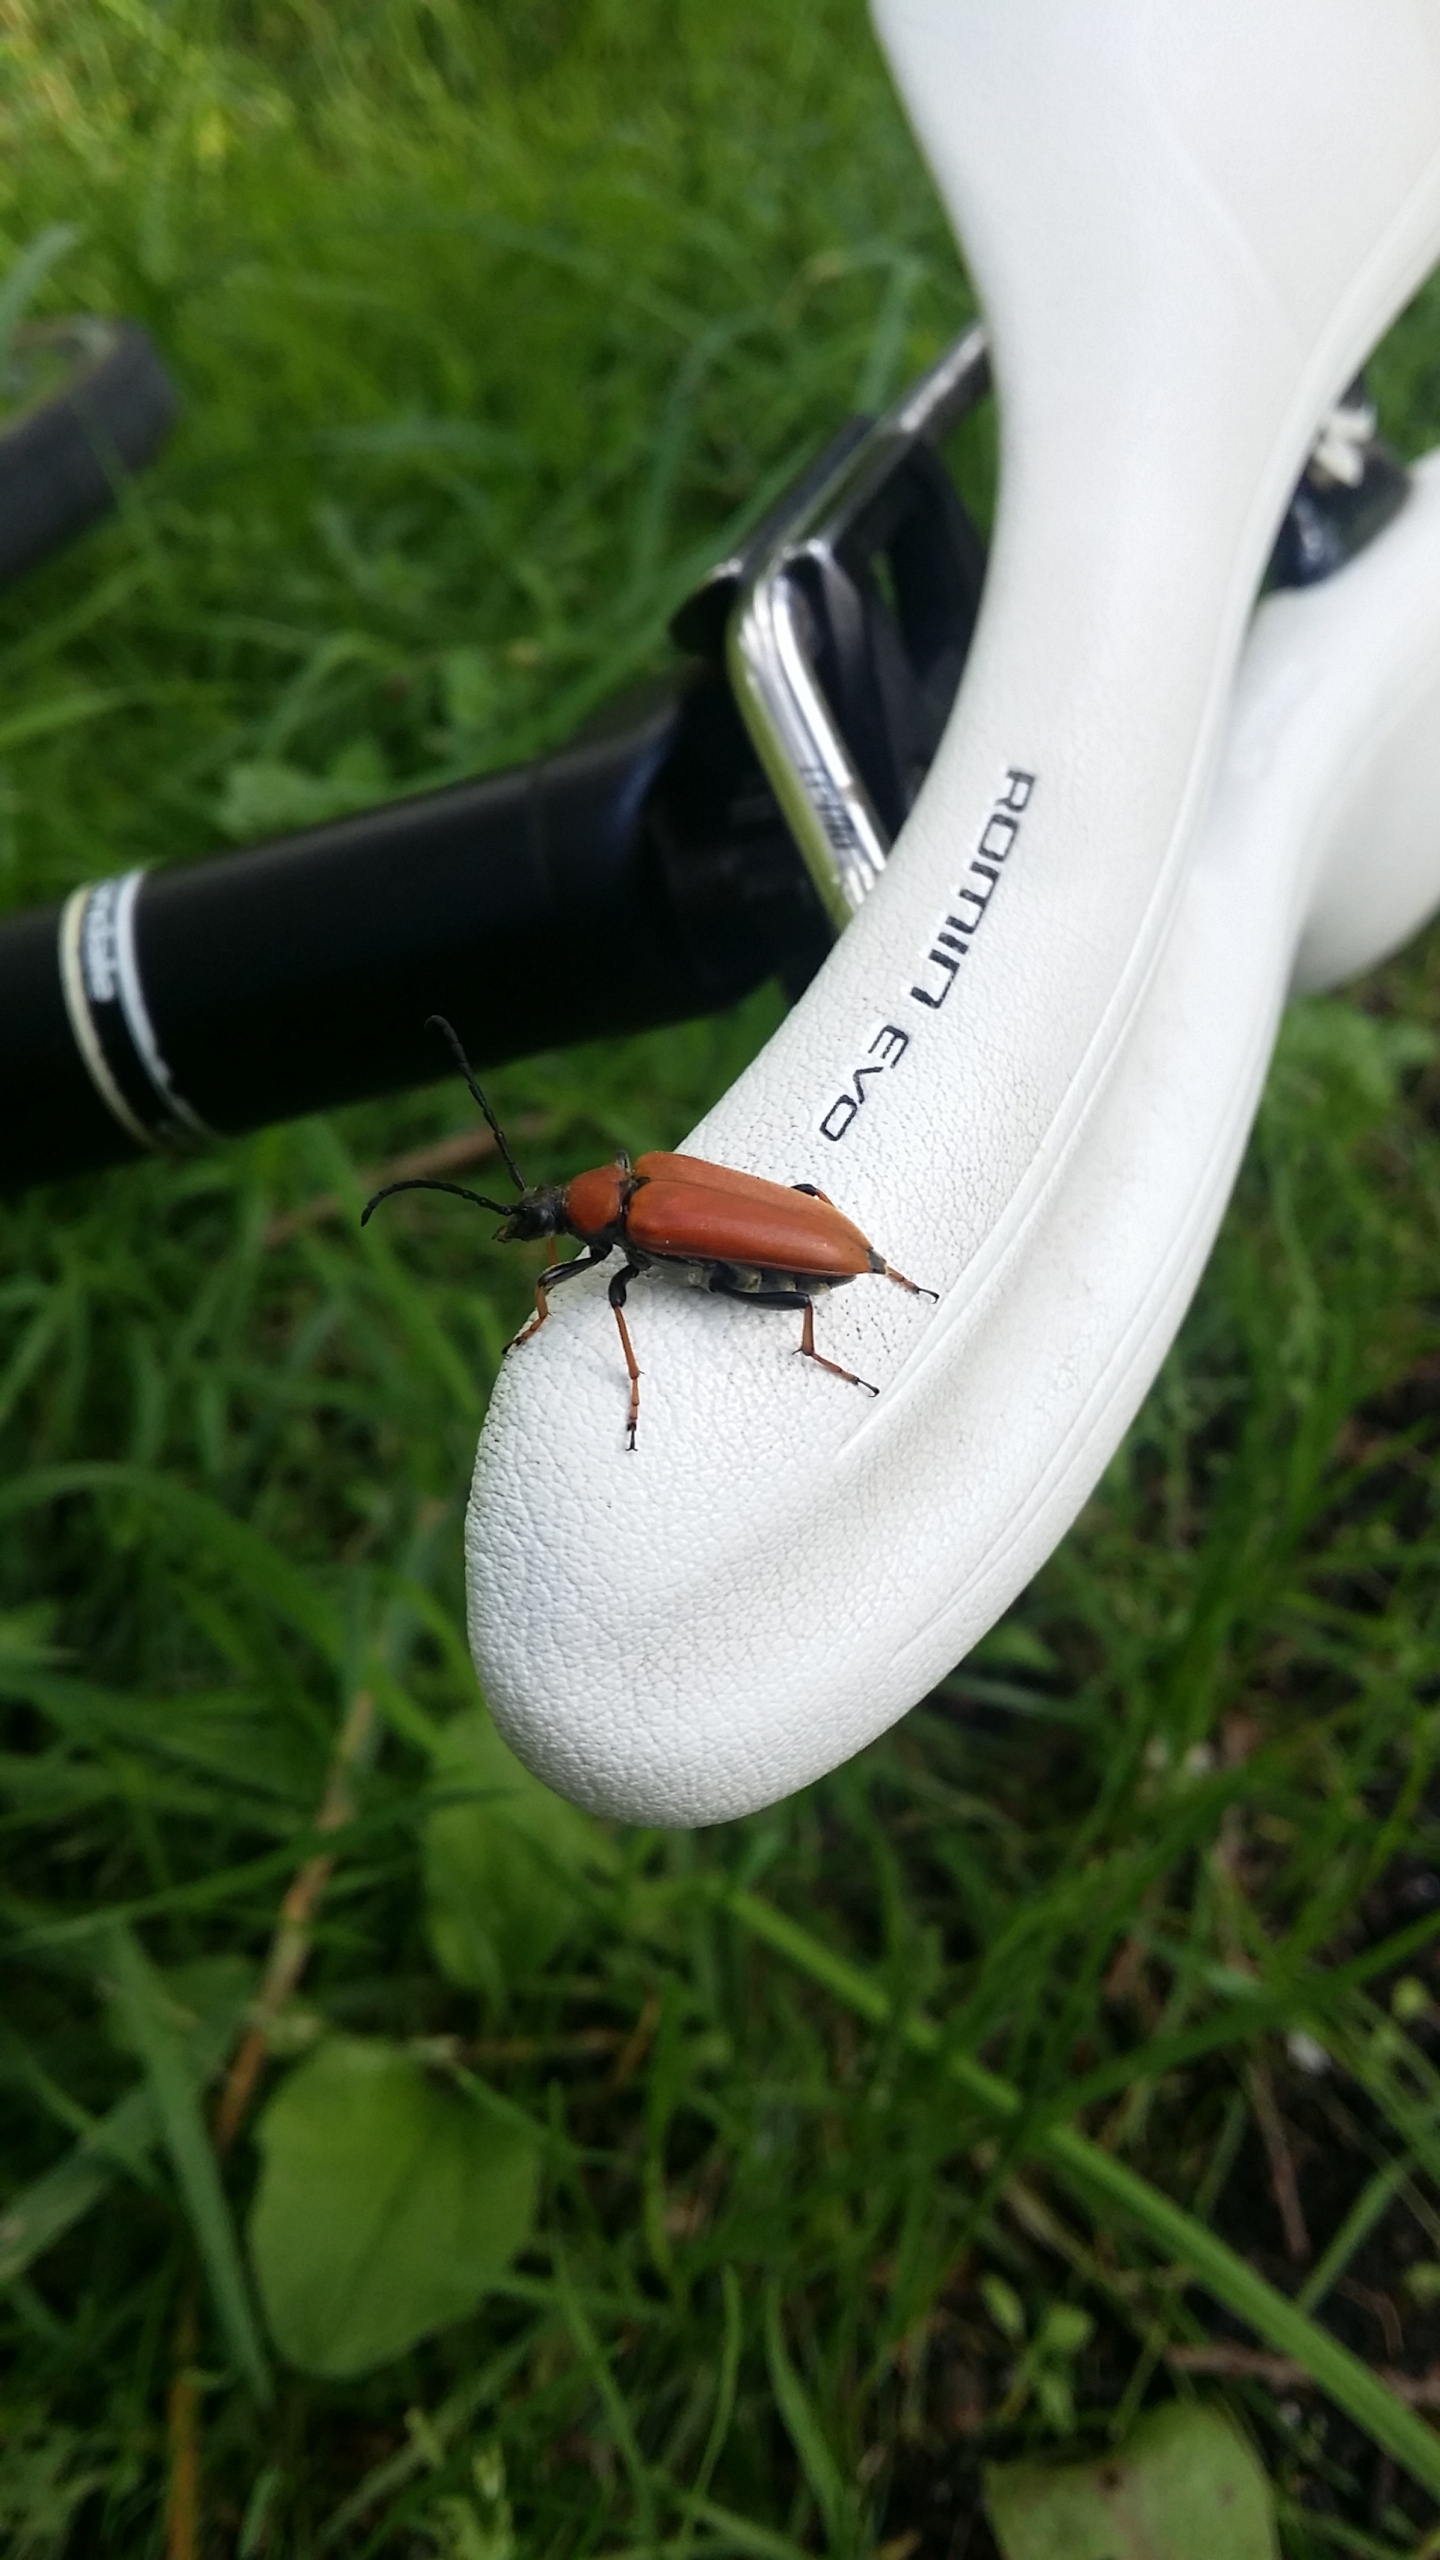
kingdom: Animalia
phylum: Arthropoda
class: Insecta
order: Coleoptera
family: Cerambycidae
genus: Stictoleptura
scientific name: Stictoleptura rubra
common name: Rød blomsterbuk
